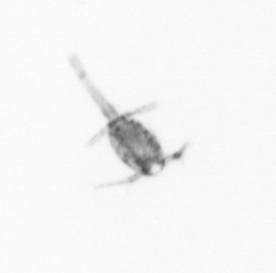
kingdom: Animalia
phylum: Arthropoda
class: Copepoda
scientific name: Copepoda
